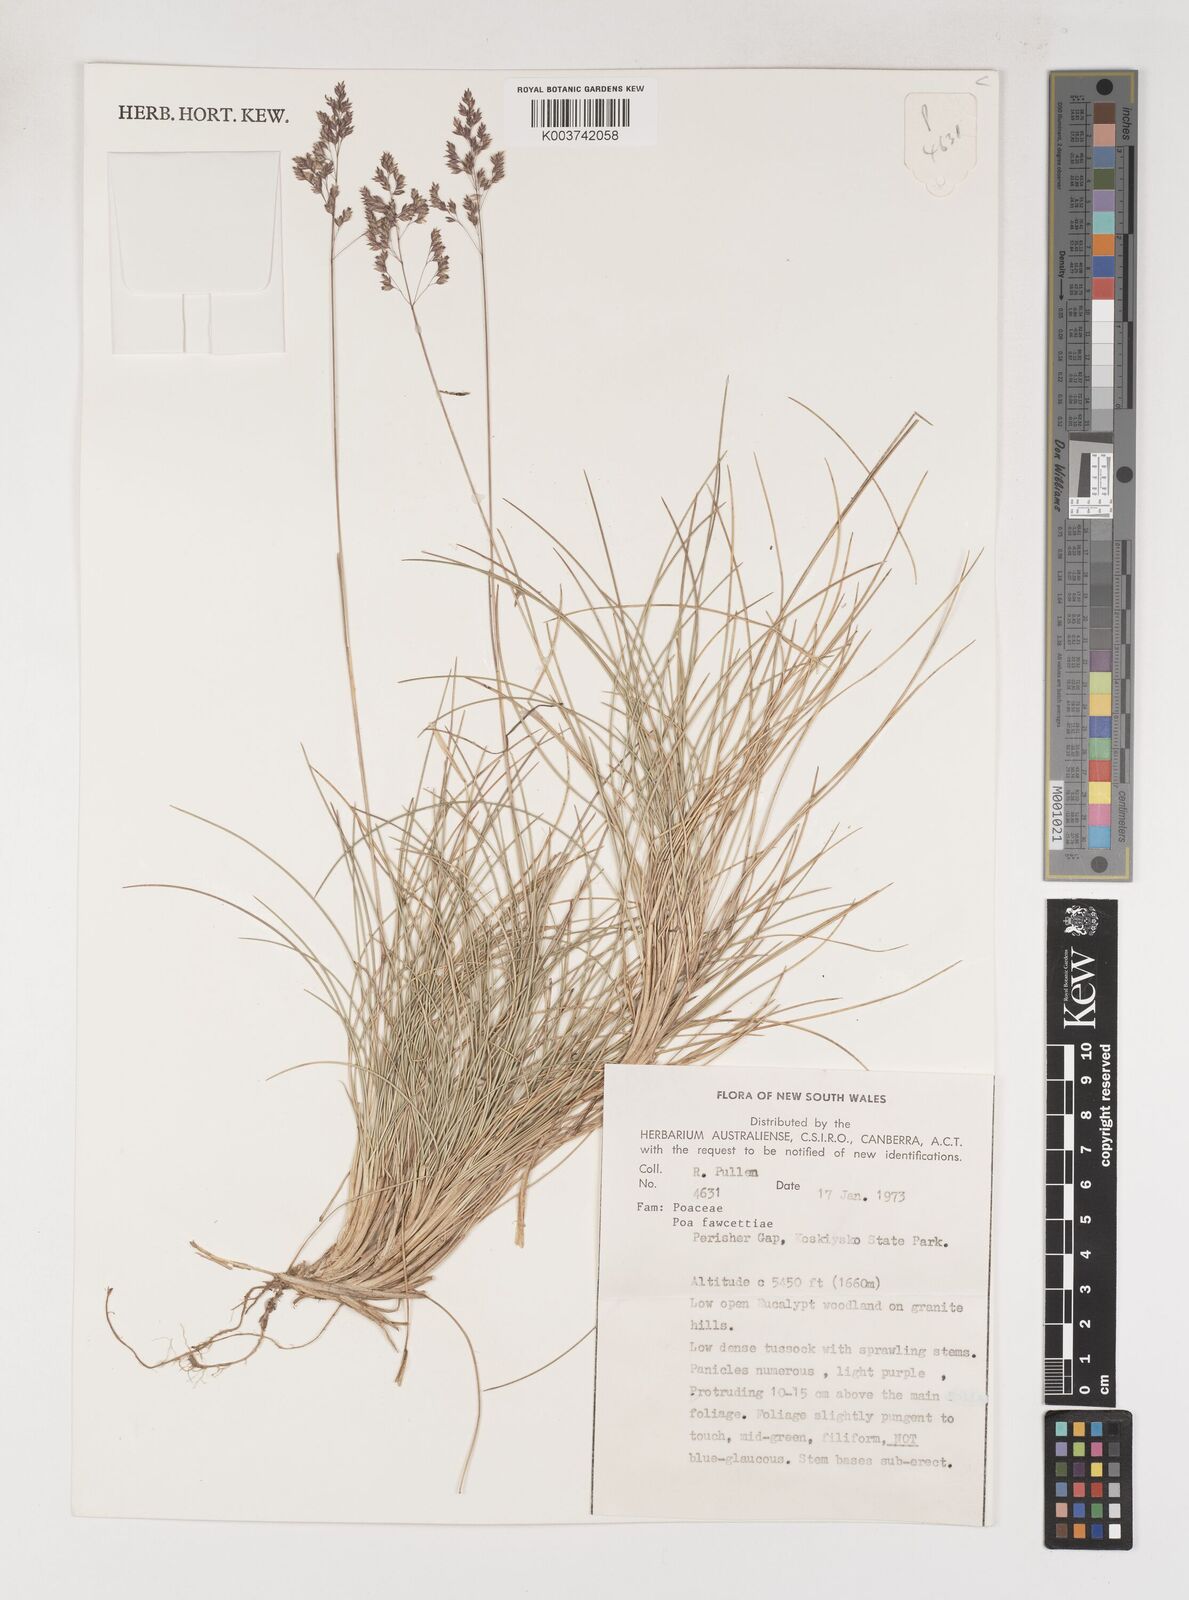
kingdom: Plantae
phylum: Tracheophyta
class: Liliopsida
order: Poales
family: Poaceae
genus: Poa
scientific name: Poa fawcettiae
